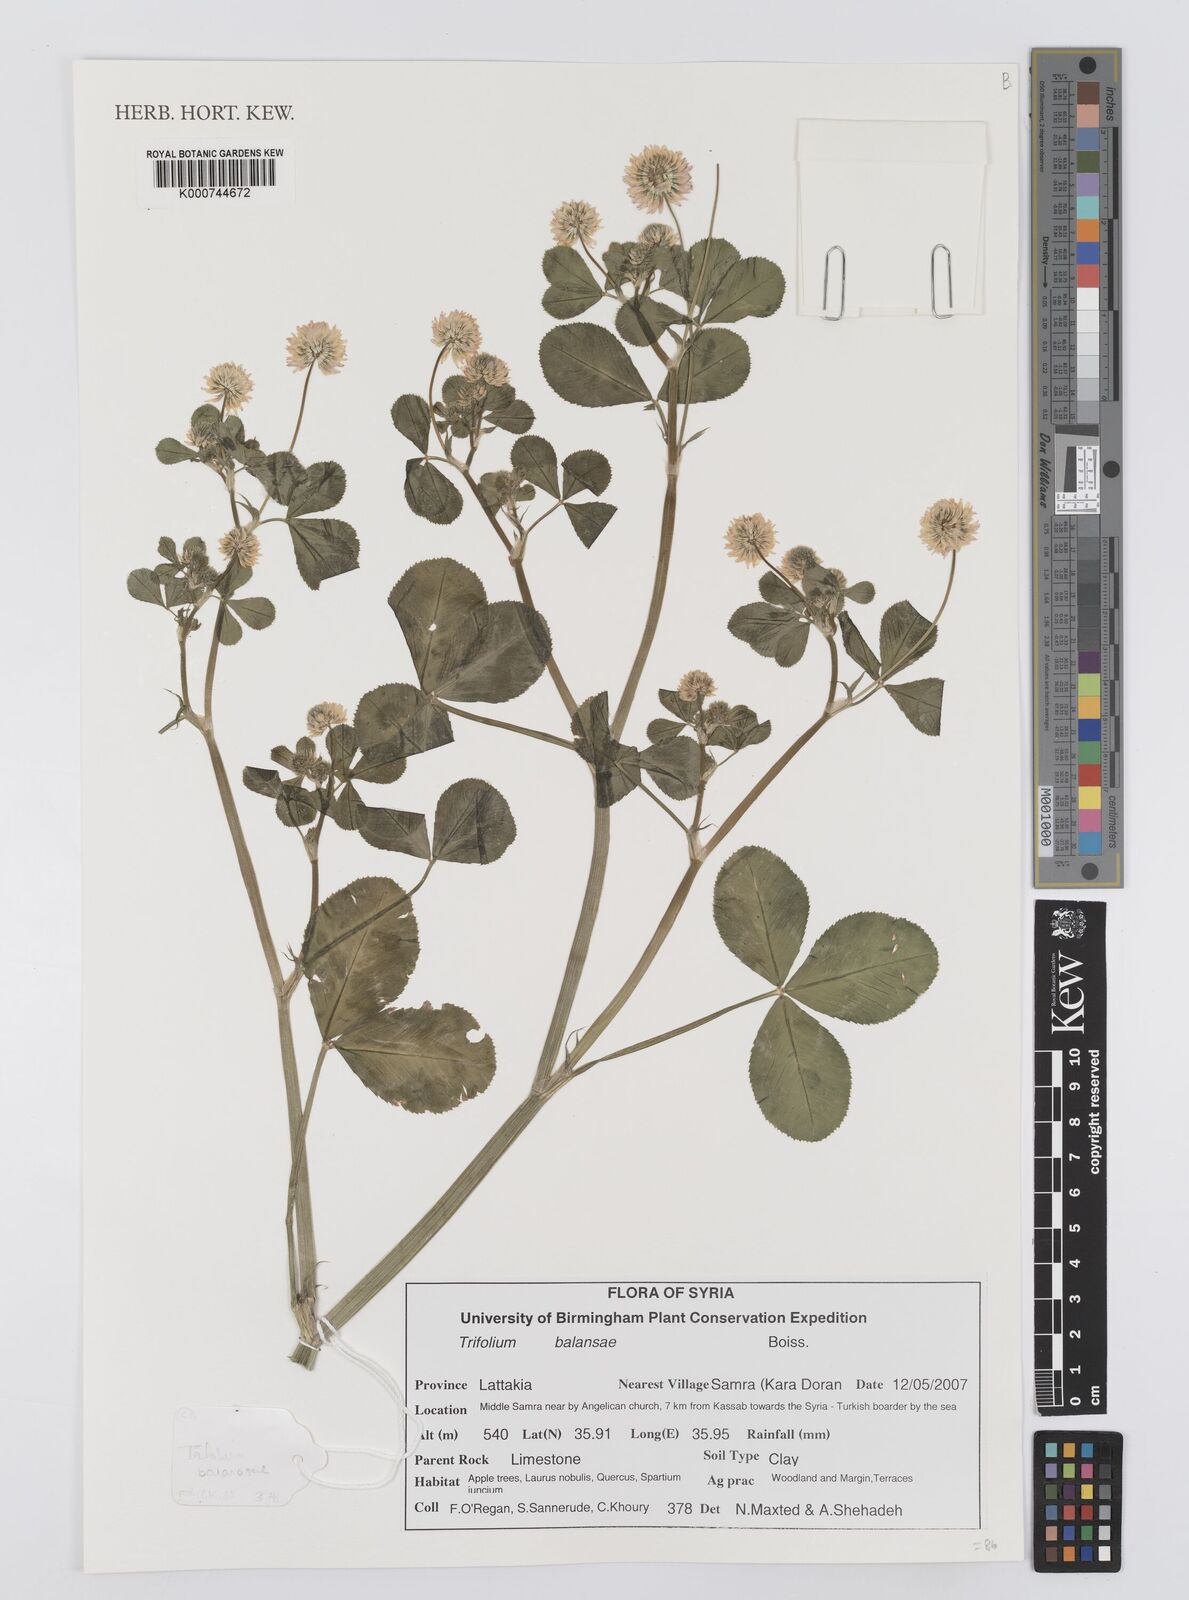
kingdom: Plantae
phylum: Tracheophyta
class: Magnoliopsida
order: Fabales
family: Fabaceae
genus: Trifolium
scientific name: Trifolium michelianum
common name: Bigflower clover
